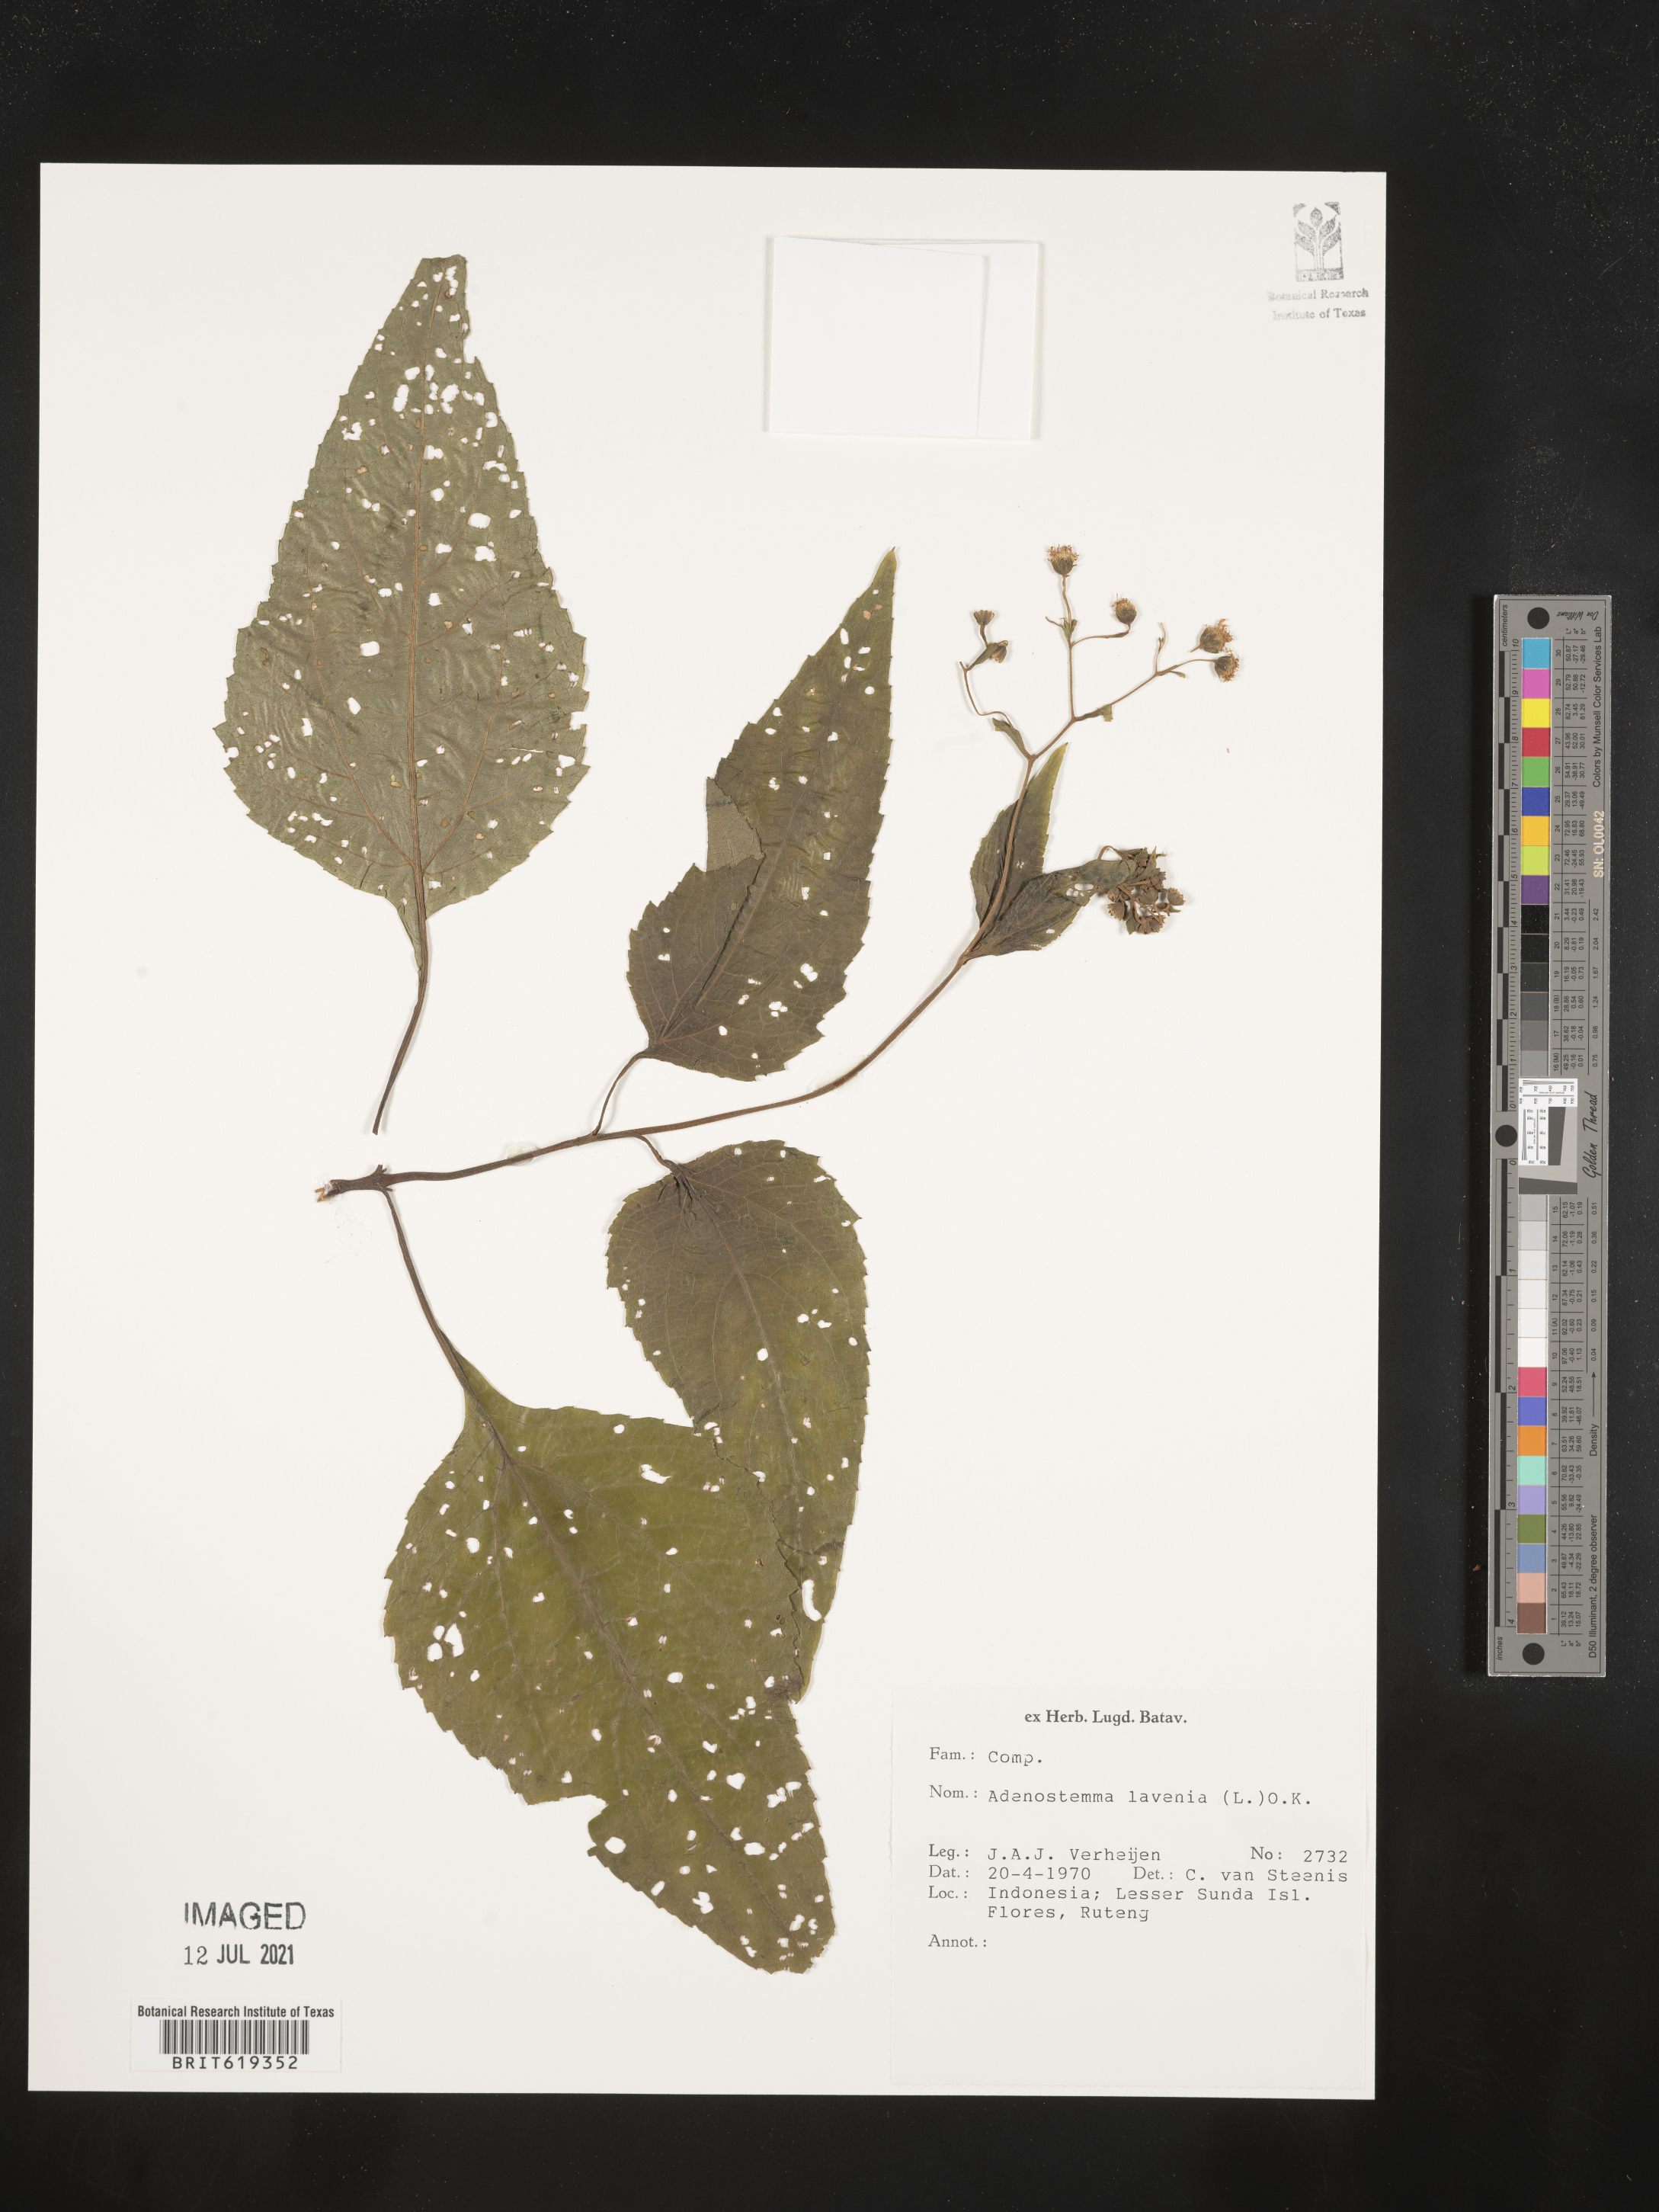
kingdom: Plantae
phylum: Tracheophyta
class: Magnoliopsida
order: Asterales
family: Asteraceae
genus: Adenostemma
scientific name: Adenostemma lavenia
